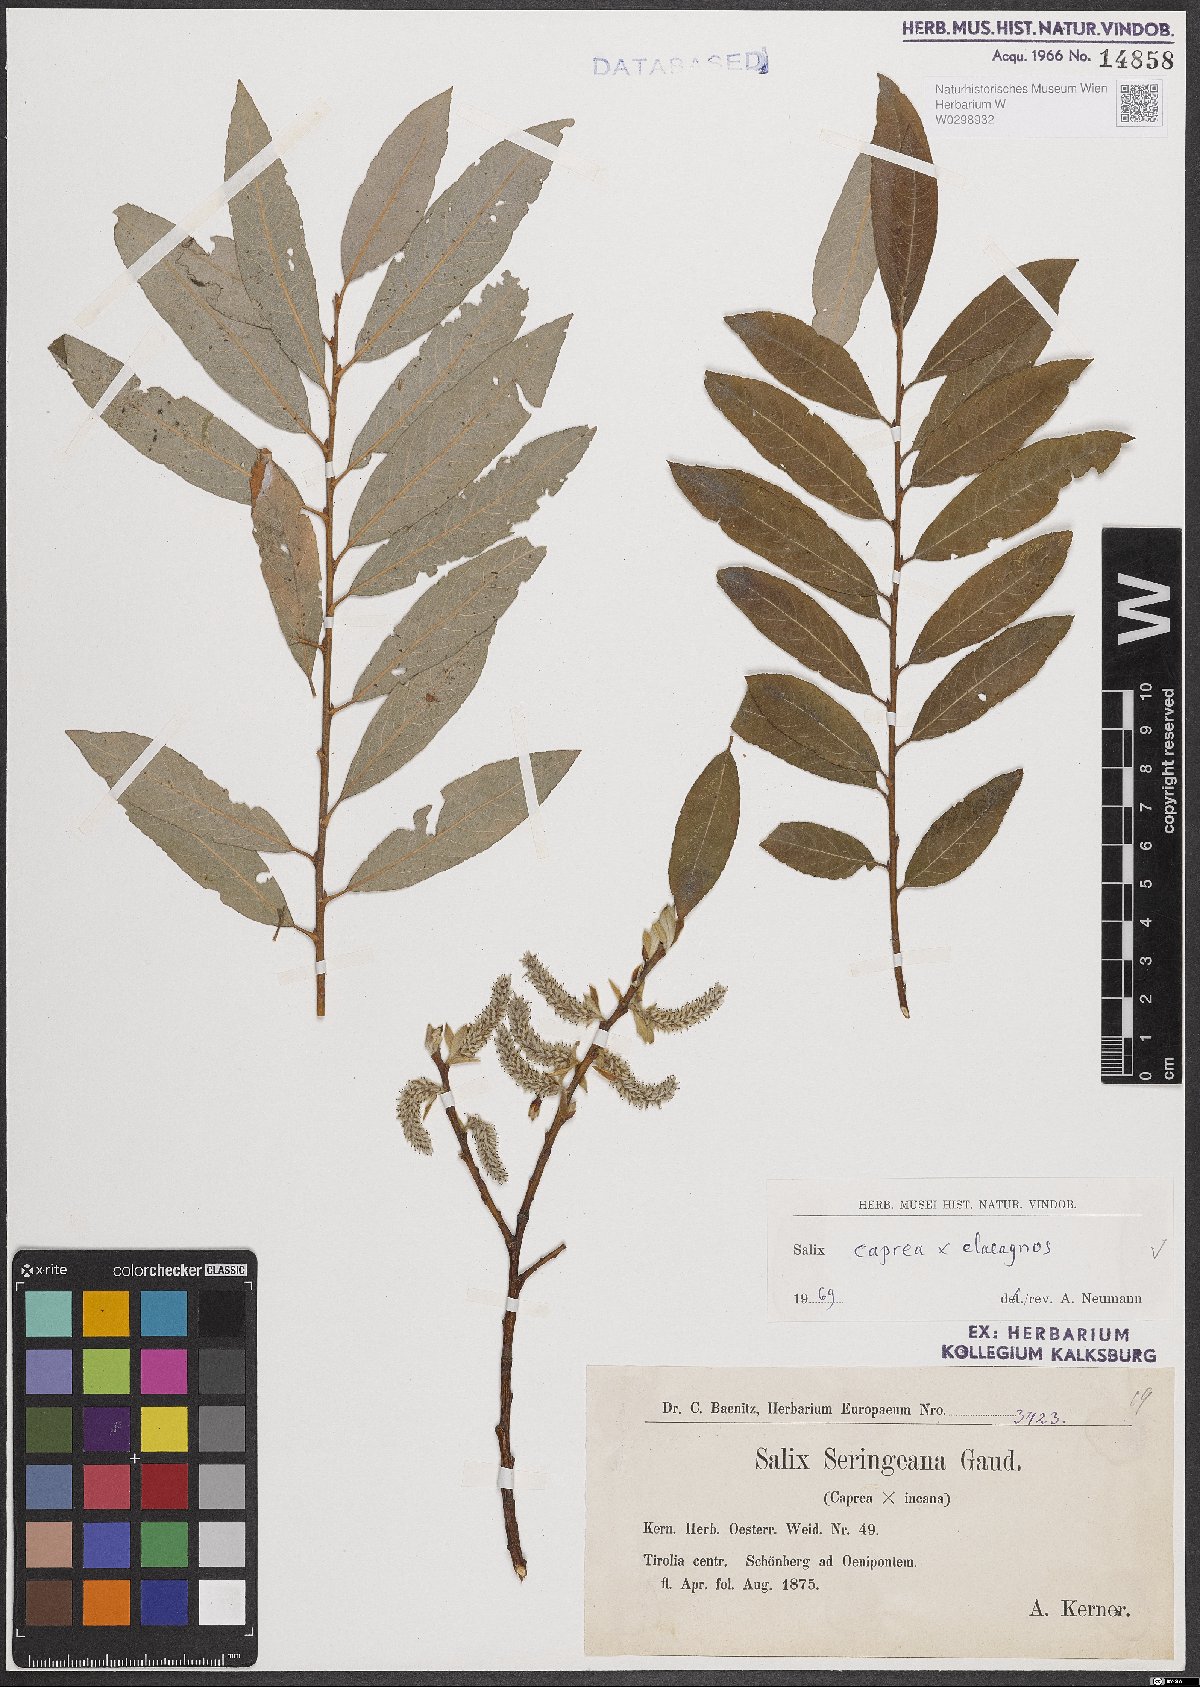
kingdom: Plantae
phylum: Tracheophyta
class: Magnoliopsida
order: Malpighiales
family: Salicaceae
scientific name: Salicaceae
